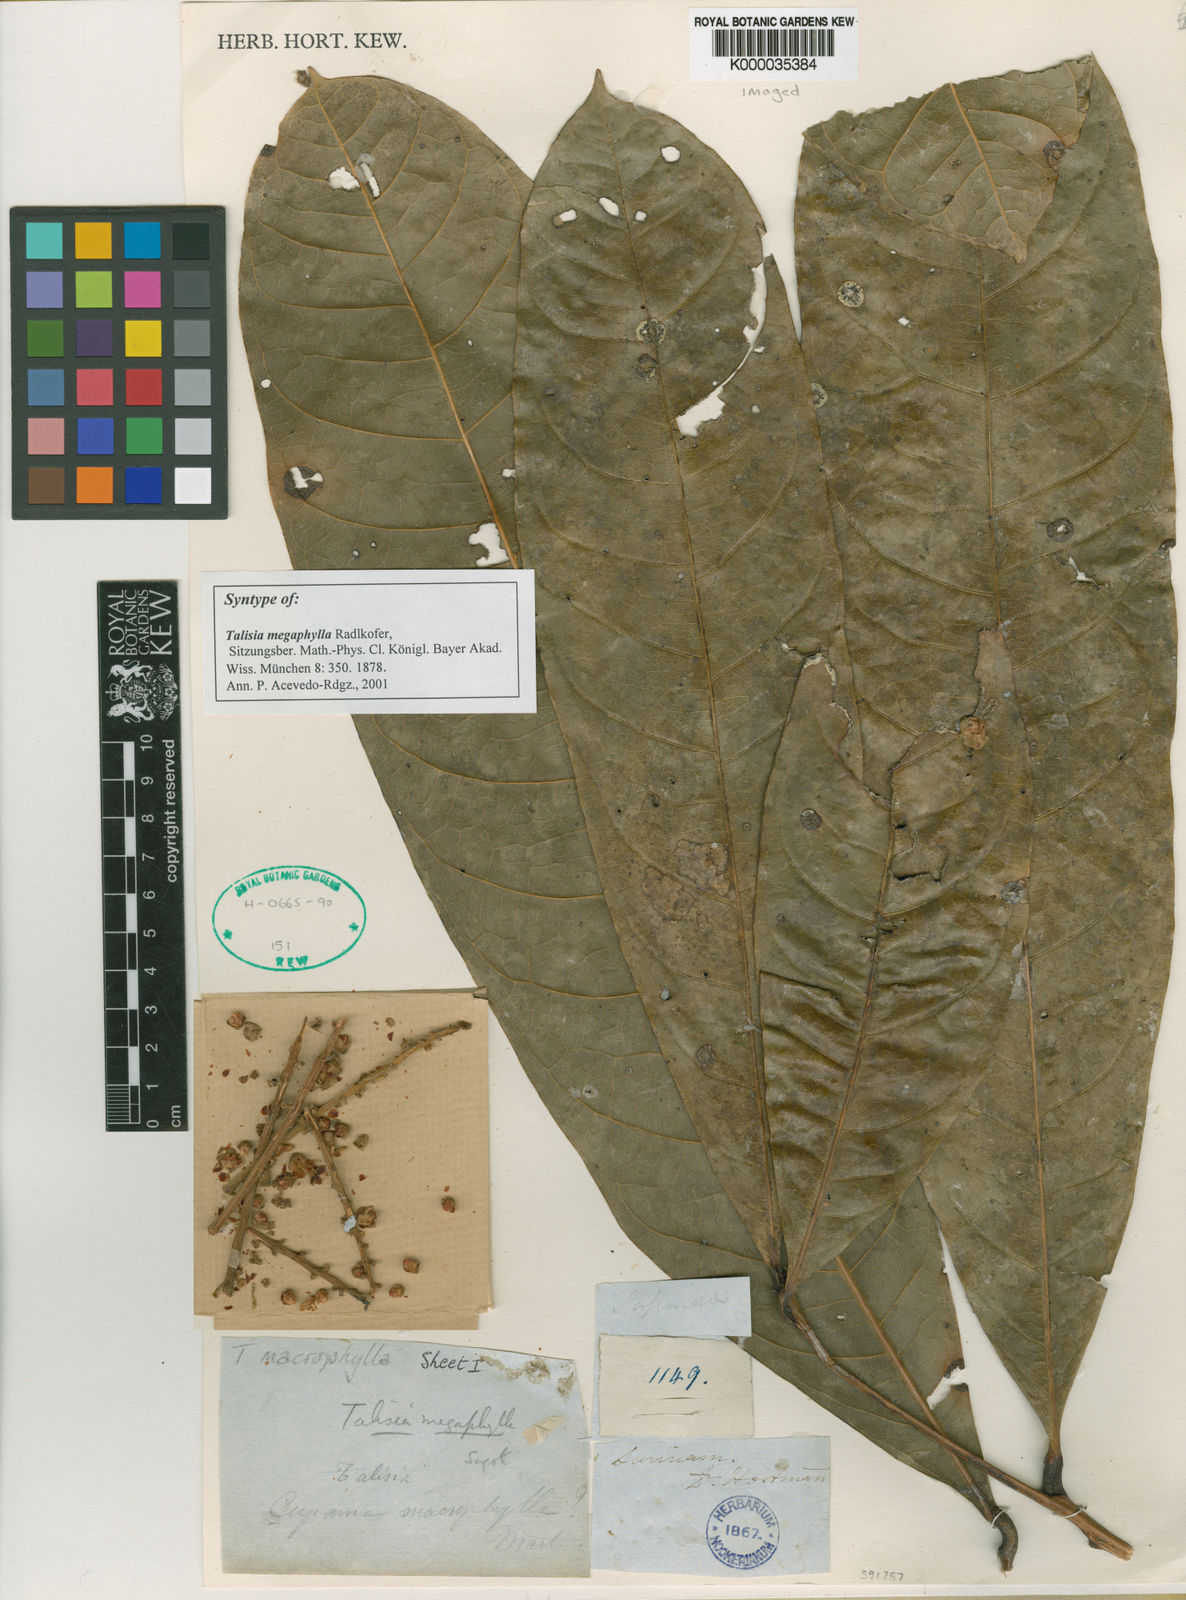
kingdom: Plantae
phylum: Tracheophyta
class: Magnoliopsida
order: Sapindales
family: Sapindaceae
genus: Talisia
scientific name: Talisia
